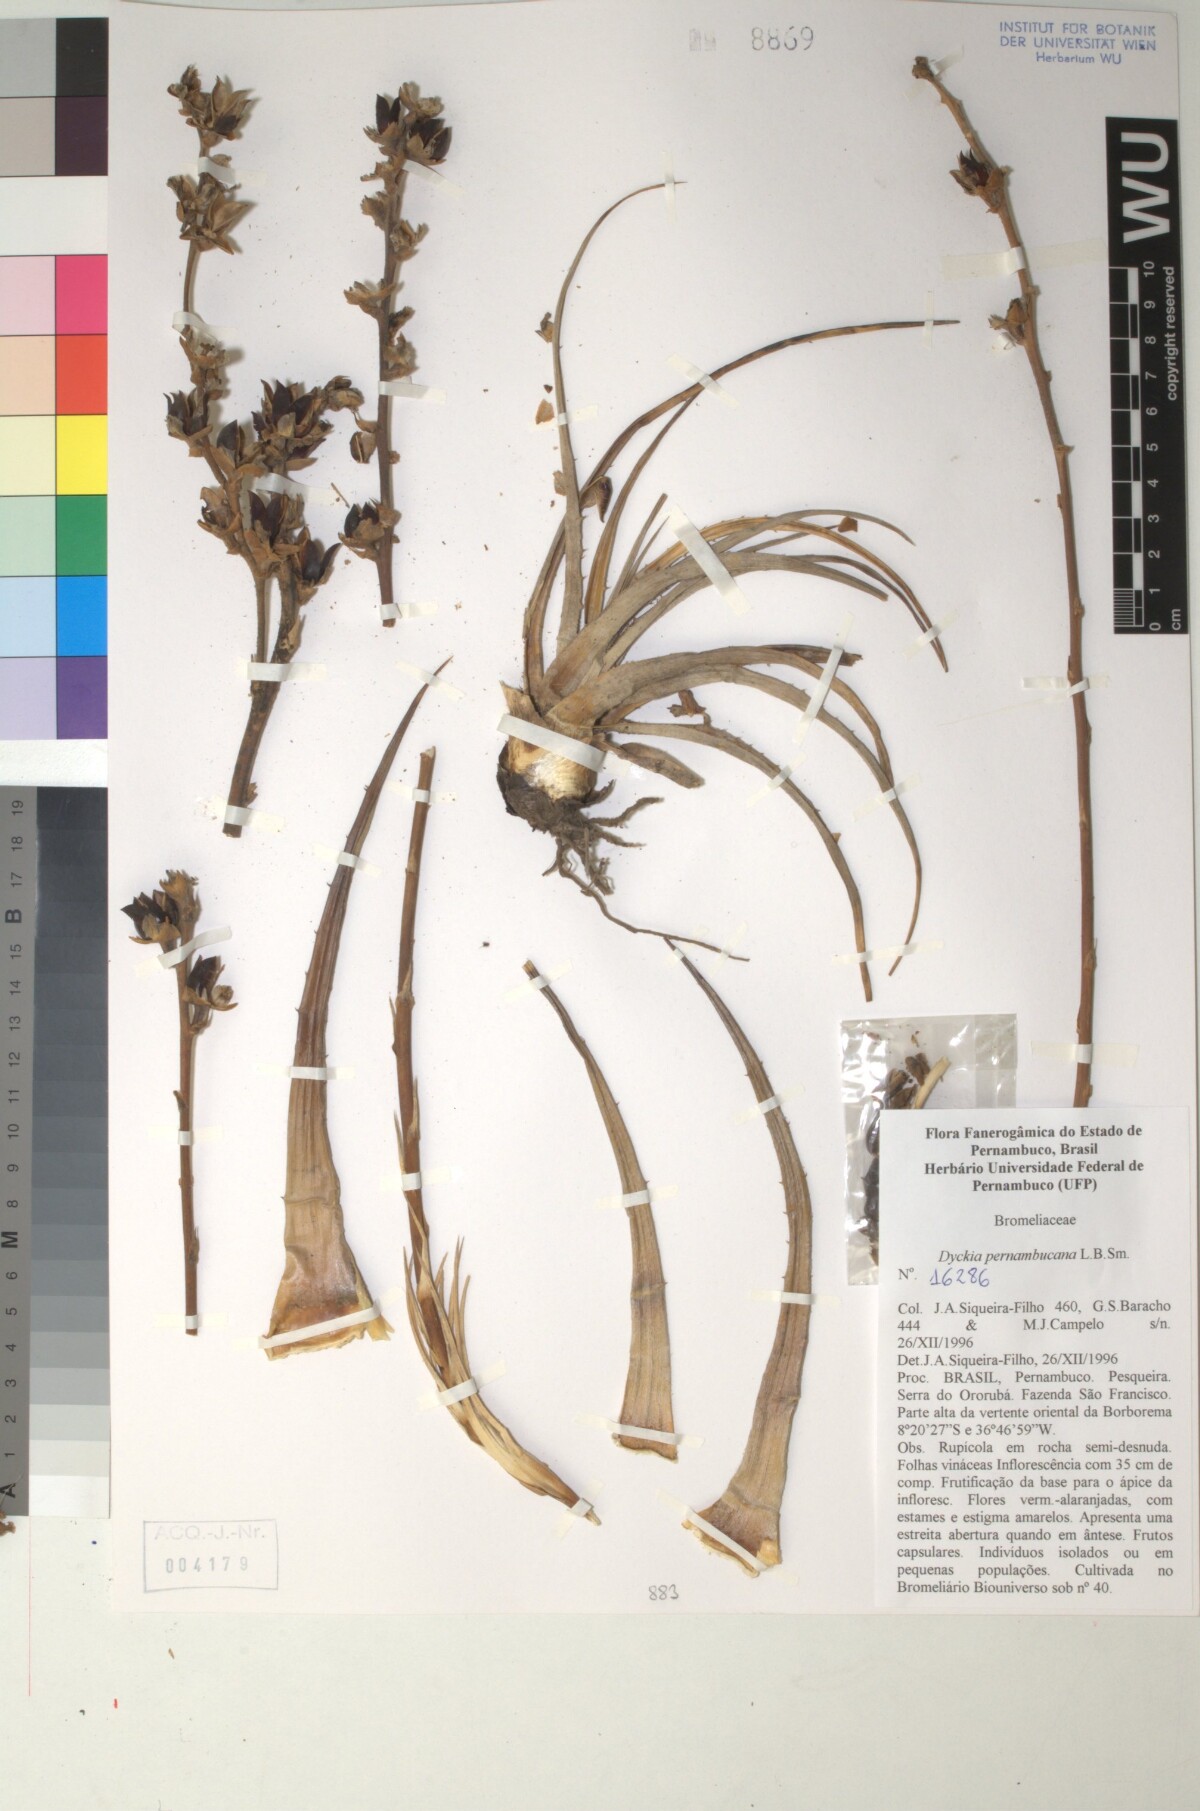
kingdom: Plantae
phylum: Tracheophyta
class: Liliopsida
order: Poales
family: Bromeliaceae
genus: Dyckia
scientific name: Dyckia pernambucana
